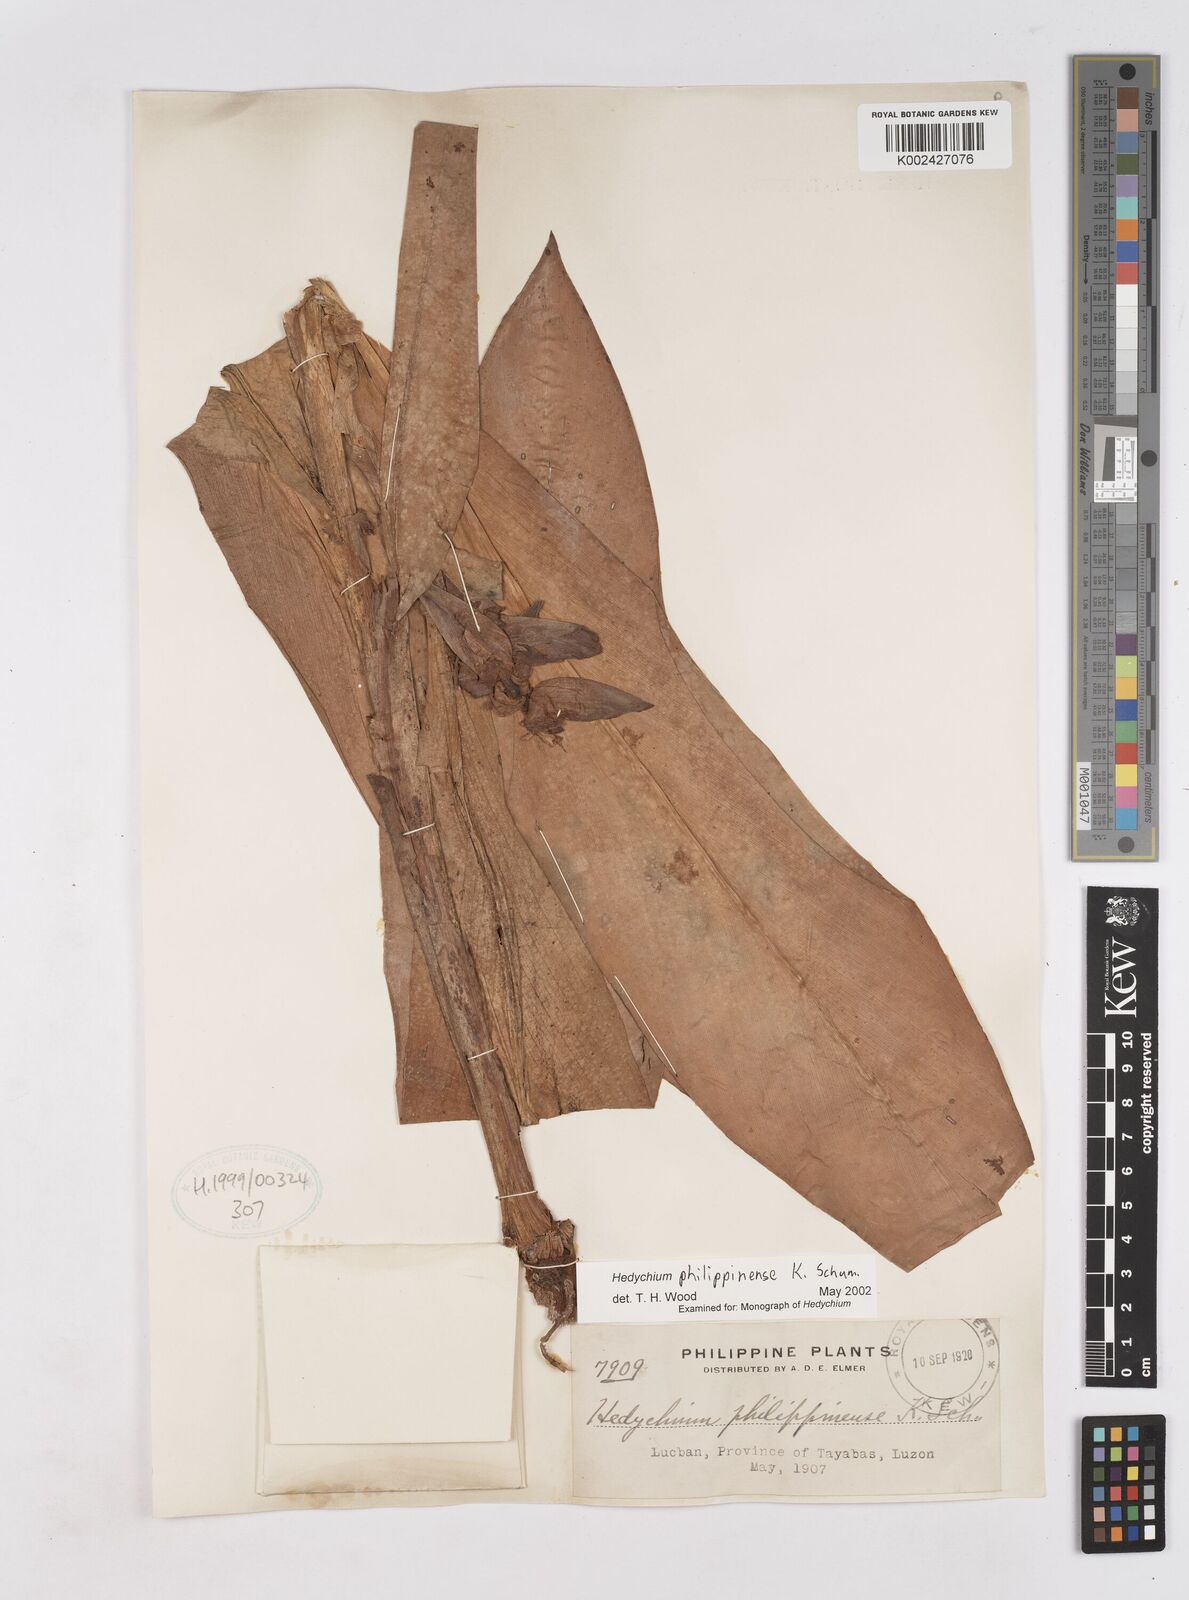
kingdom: Plantae
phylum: Tracheophyta
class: Liliopsida
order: Zingiberales
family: Zingiberaceae
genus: Hedychium
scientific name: Hedychium philippinense
